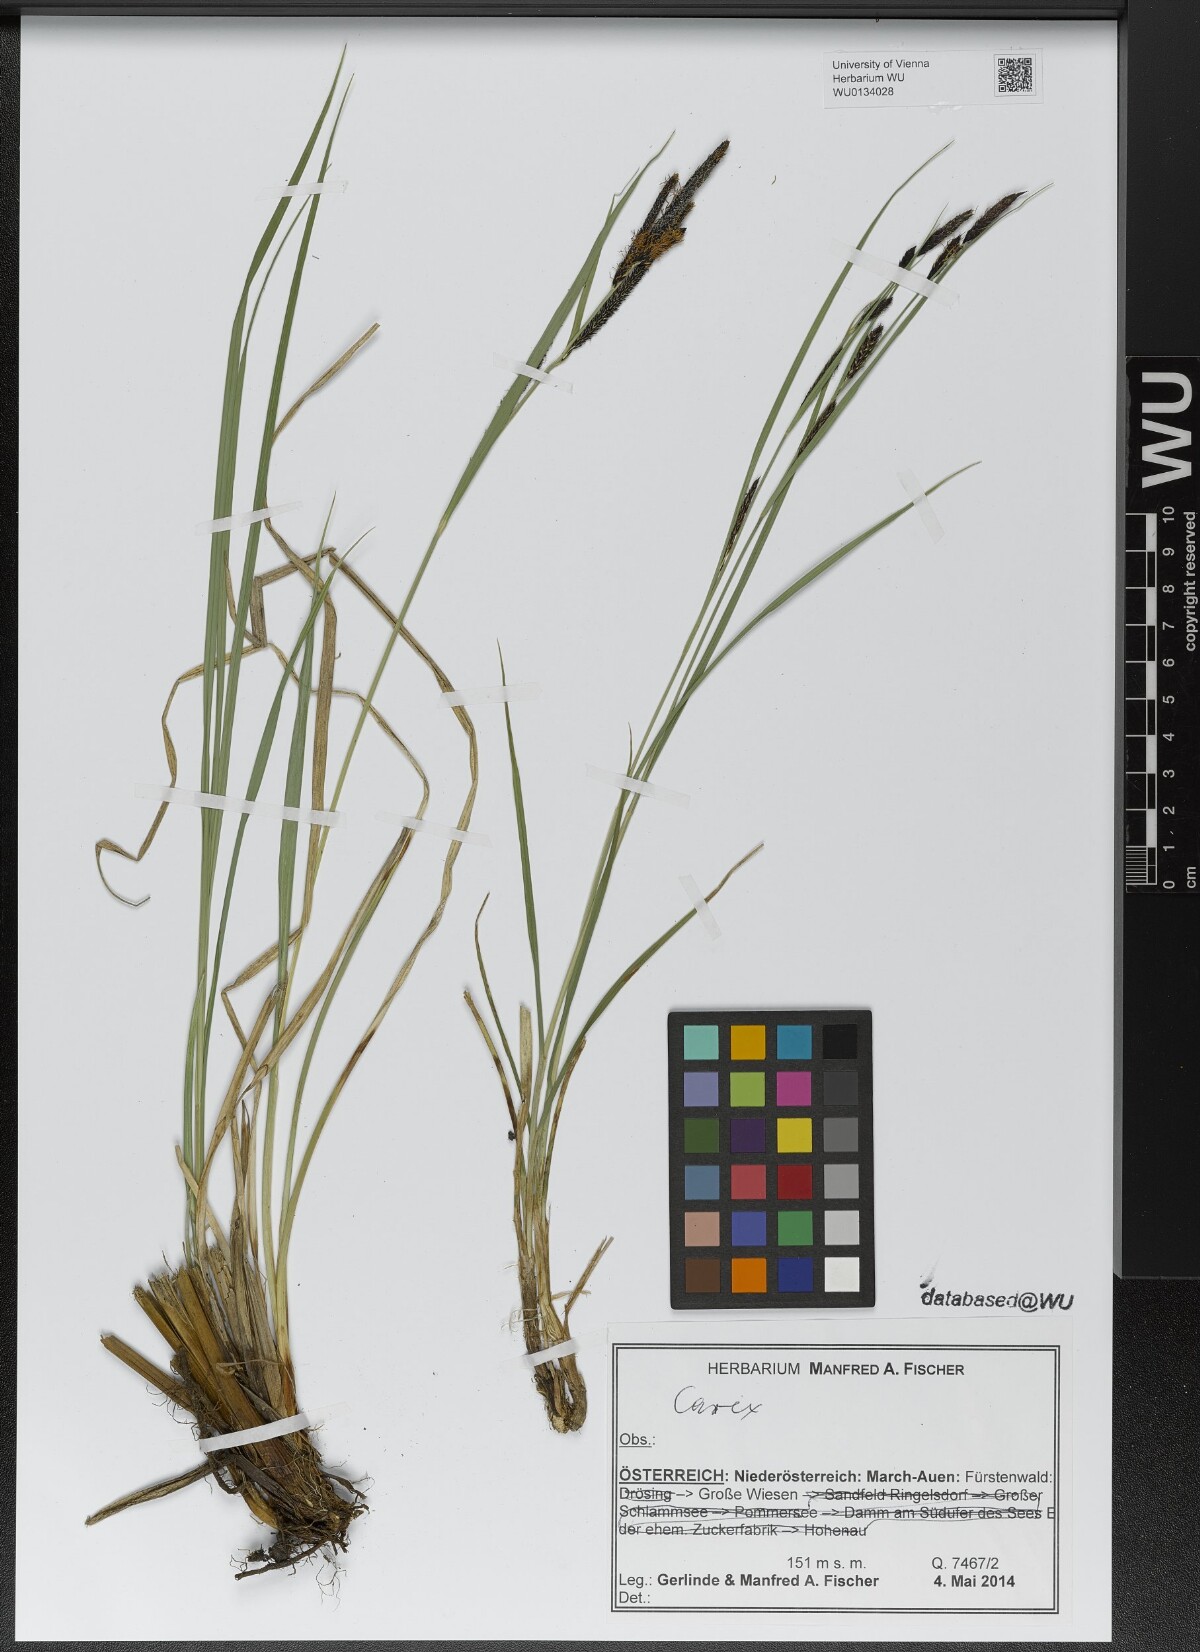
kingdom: Plantae
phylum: Tracheophyta
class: Liliopsida
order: Poales
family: Cyperaceae
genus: Carex
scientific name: Carex
